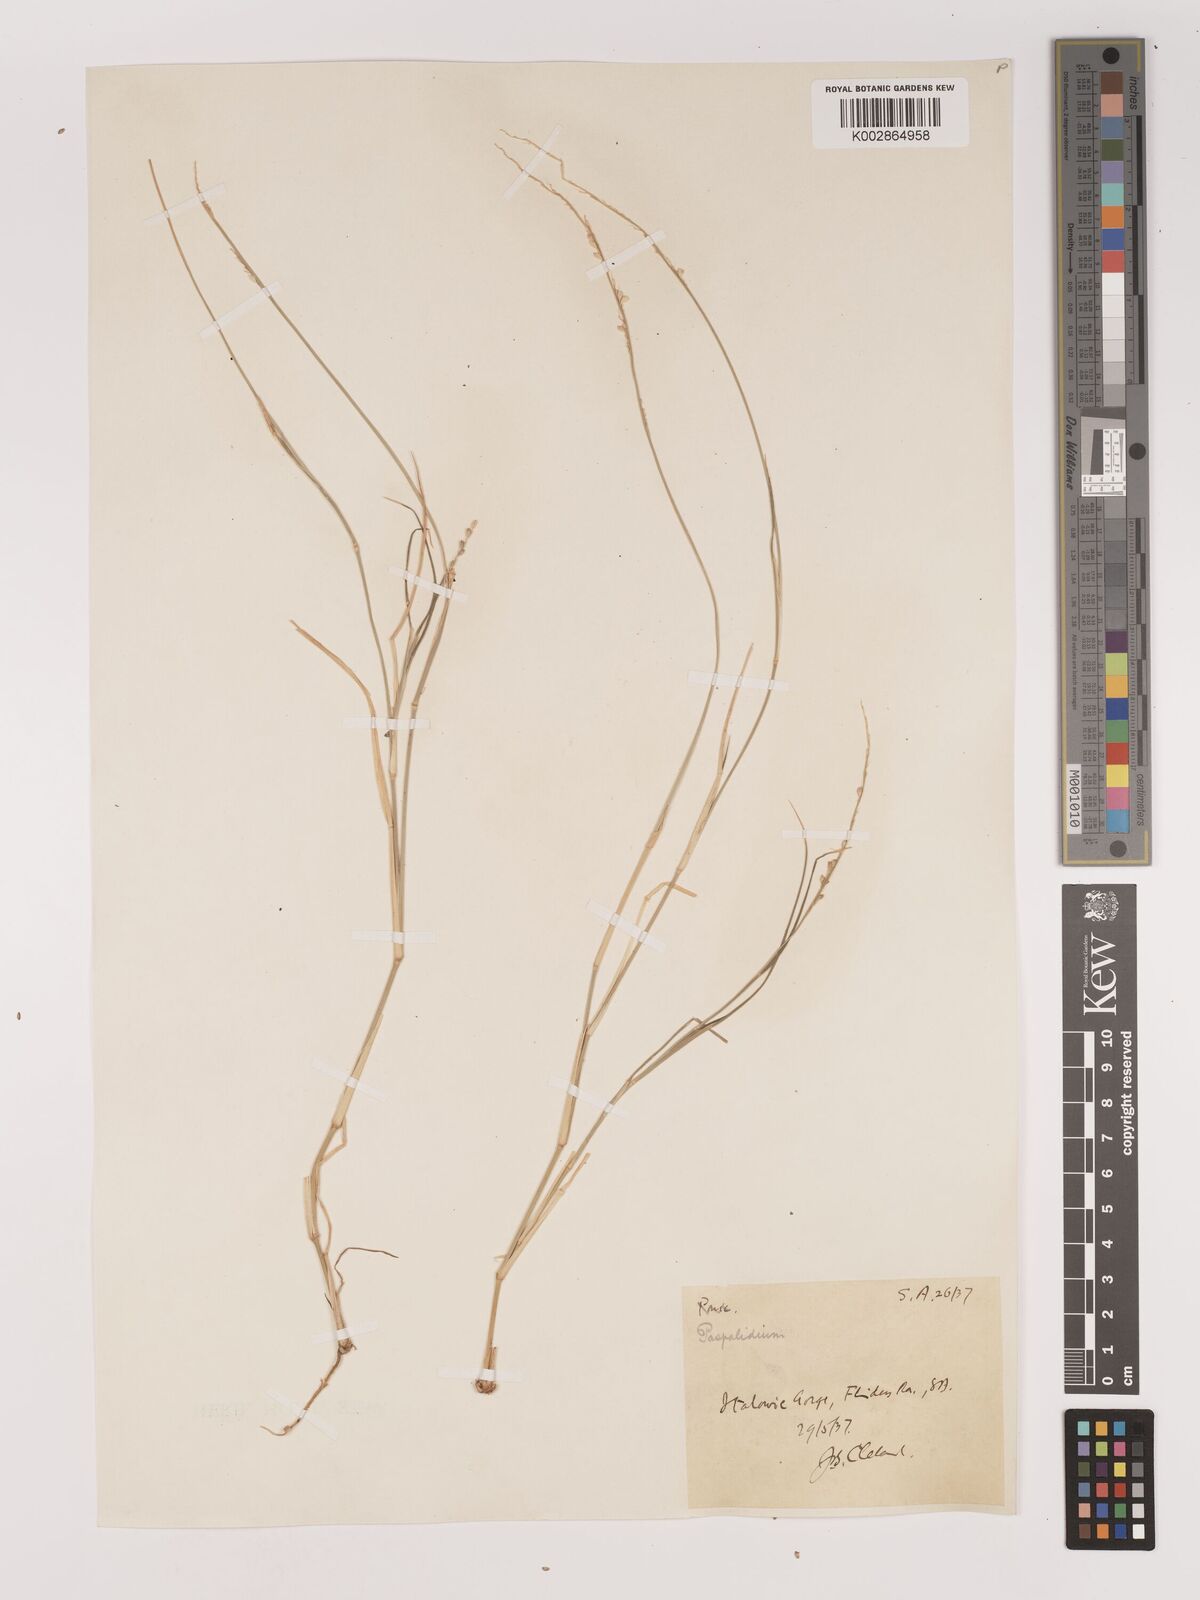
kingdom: Plantae
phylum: Tracheophyta
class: Liliopsida
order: Poales
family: Poaceae
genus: Setaria
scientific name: Setaria
